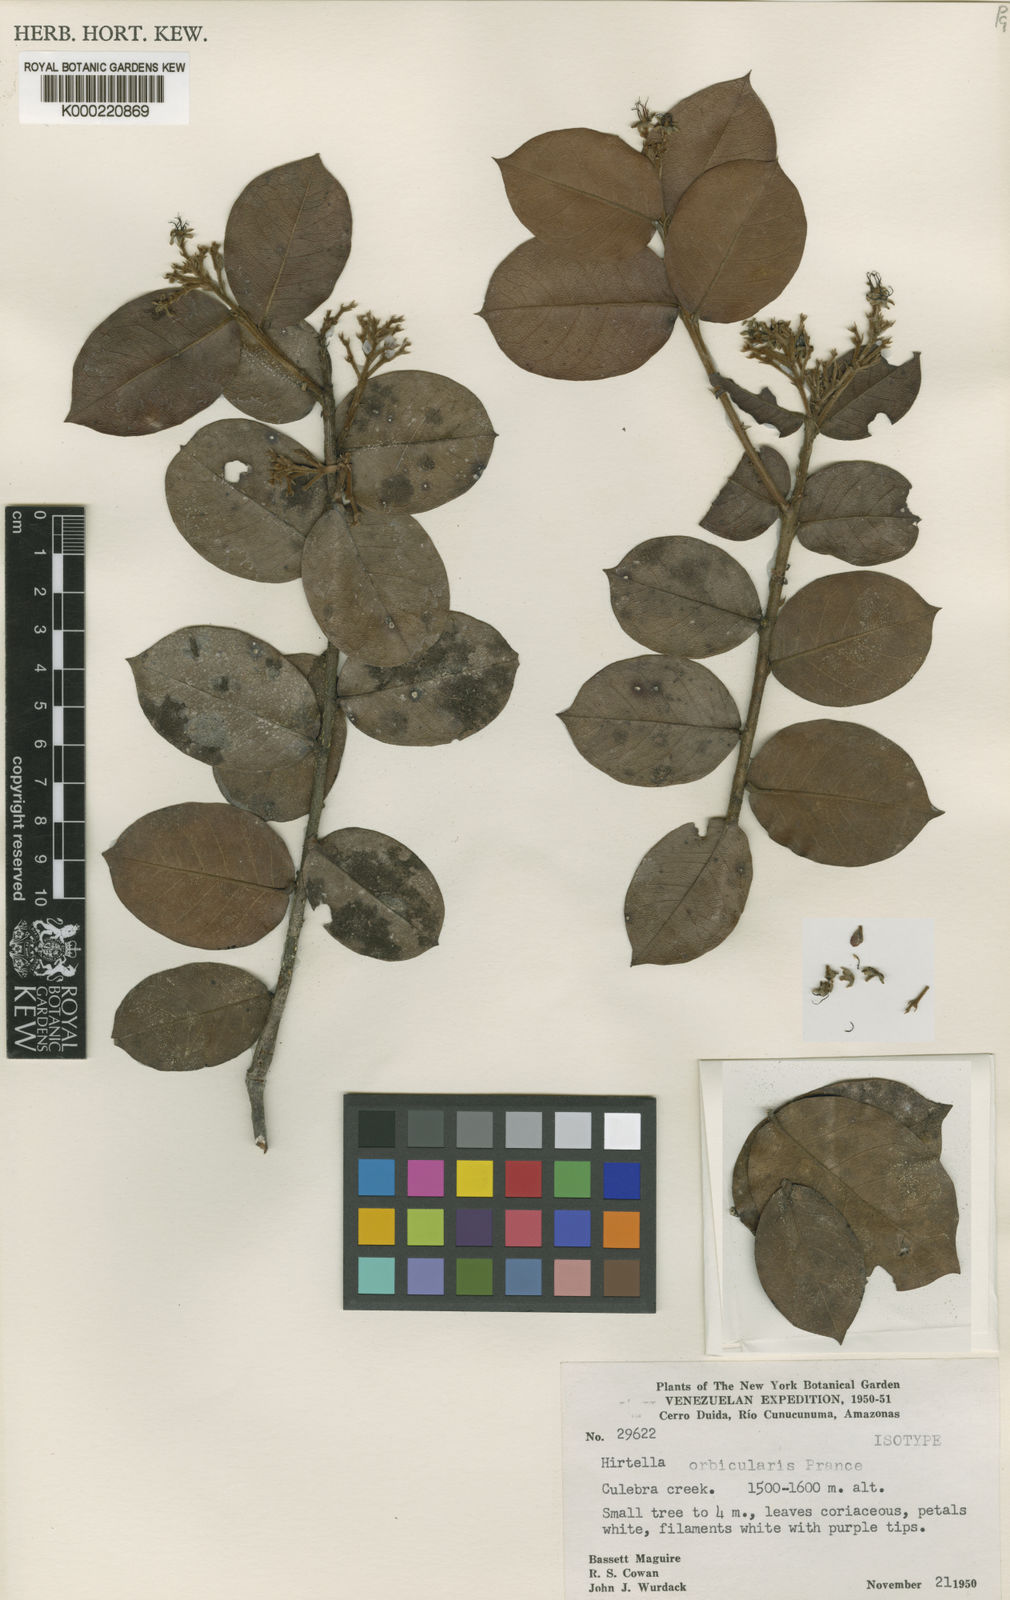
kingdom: Plantae
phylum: Tracheophyta
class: Magnoliopsida
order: Malpighiales
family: Chrysobalanaceae
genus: Hirtella
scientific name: Hirtella orbicularis
